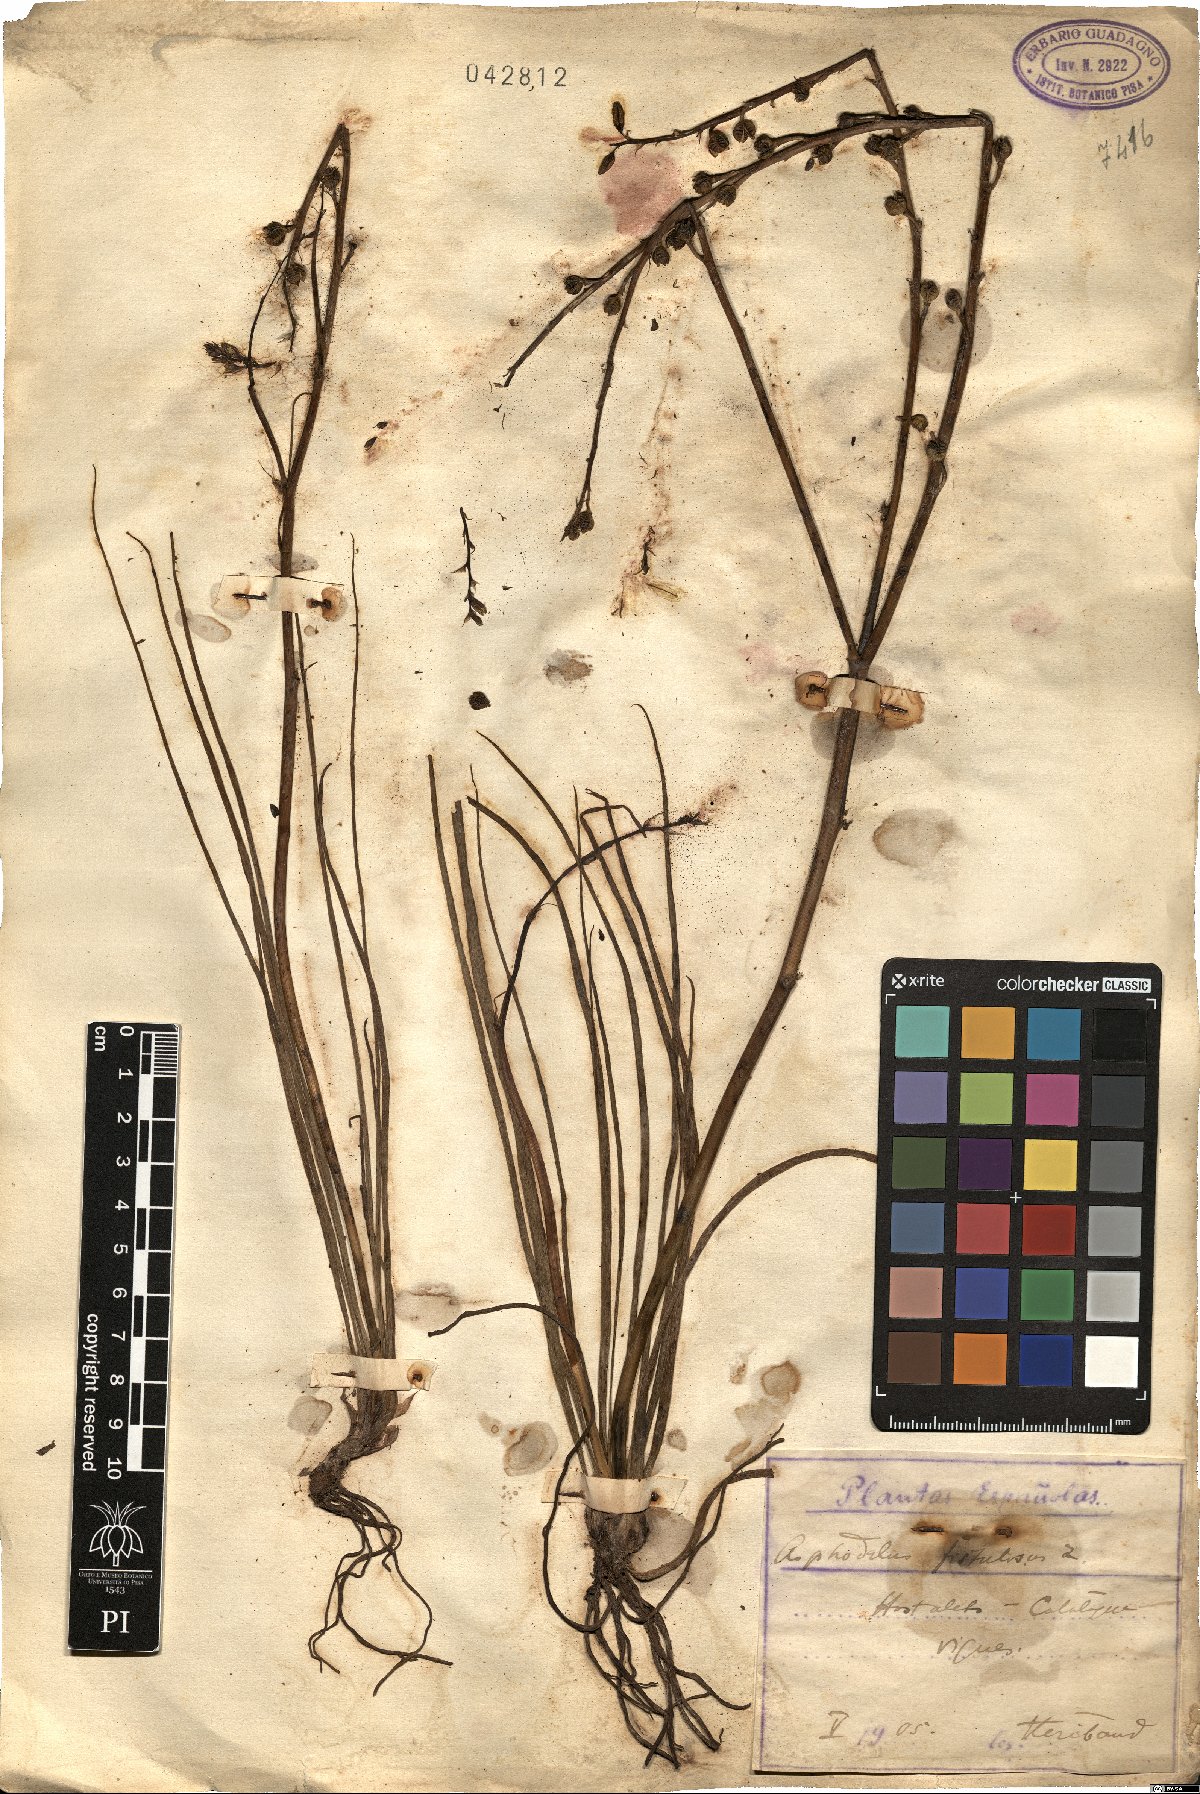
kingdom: Plantae
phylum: Tracheophyta
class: Liliopsida
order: Asparagales
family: Asphodelaceae
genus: Asphodelus
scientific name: Asphodelus fistulosus
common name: Onionweed
